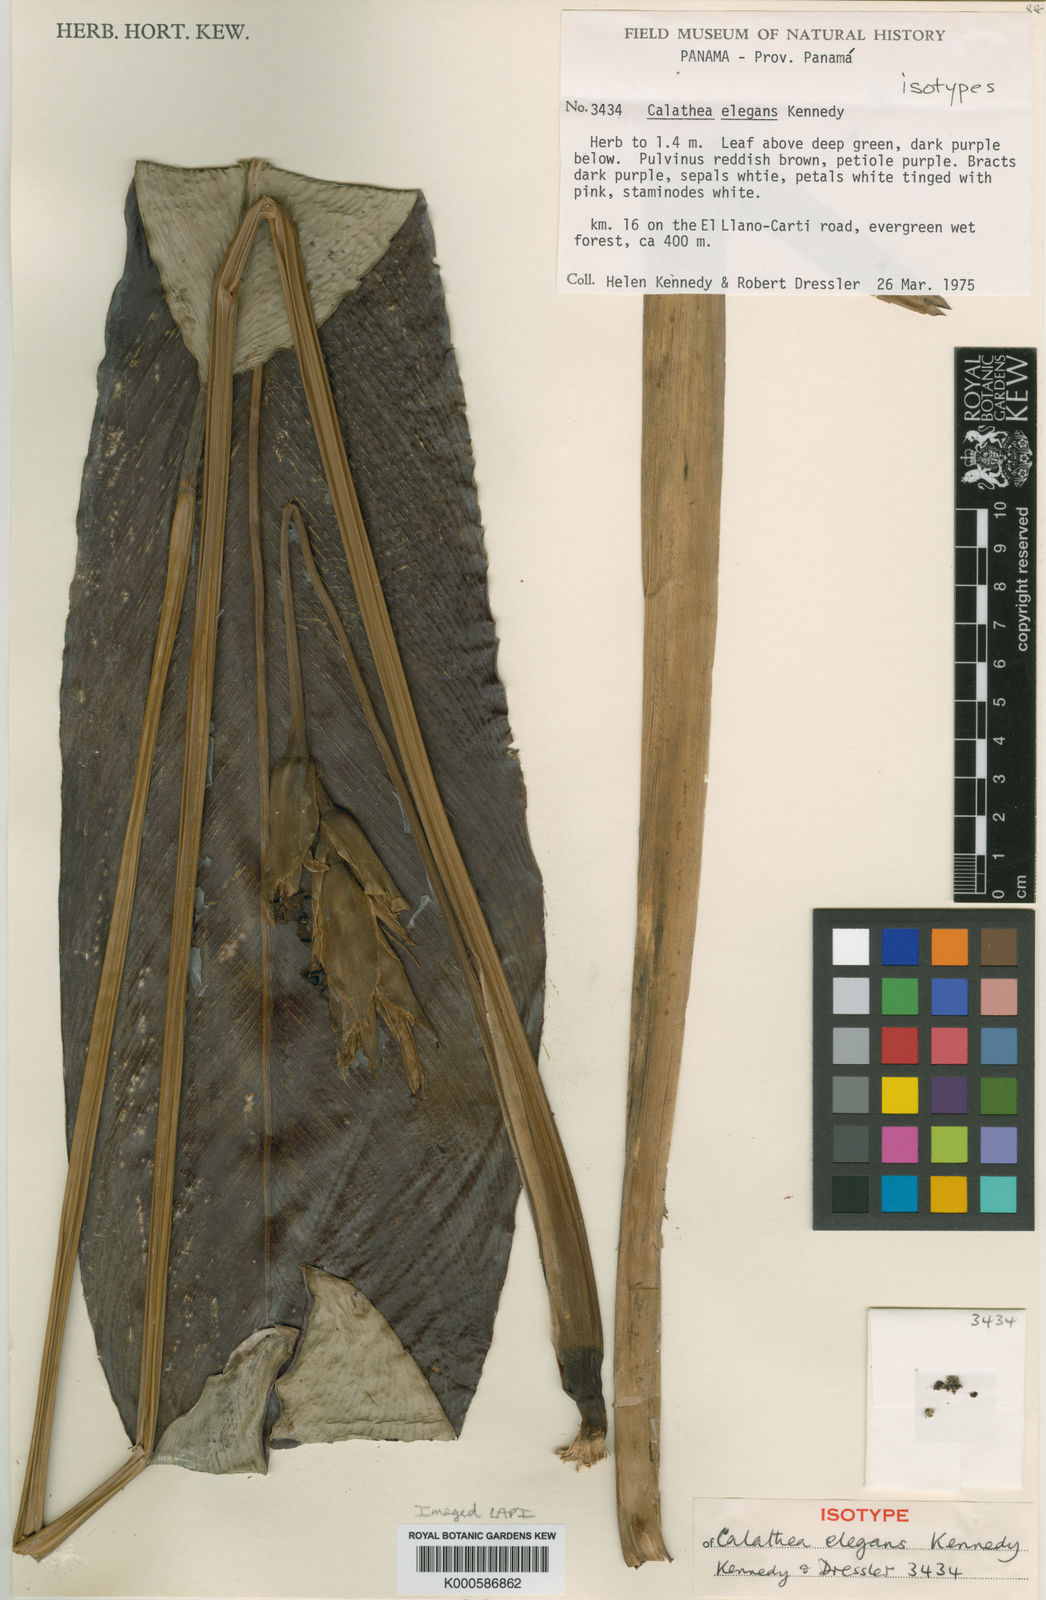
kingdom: Plantae
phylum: Tracheophyta
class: Liliopsida
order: Zingiberales
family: Marantaceae
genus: Goeppertia
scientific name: Goeppertia elegans
